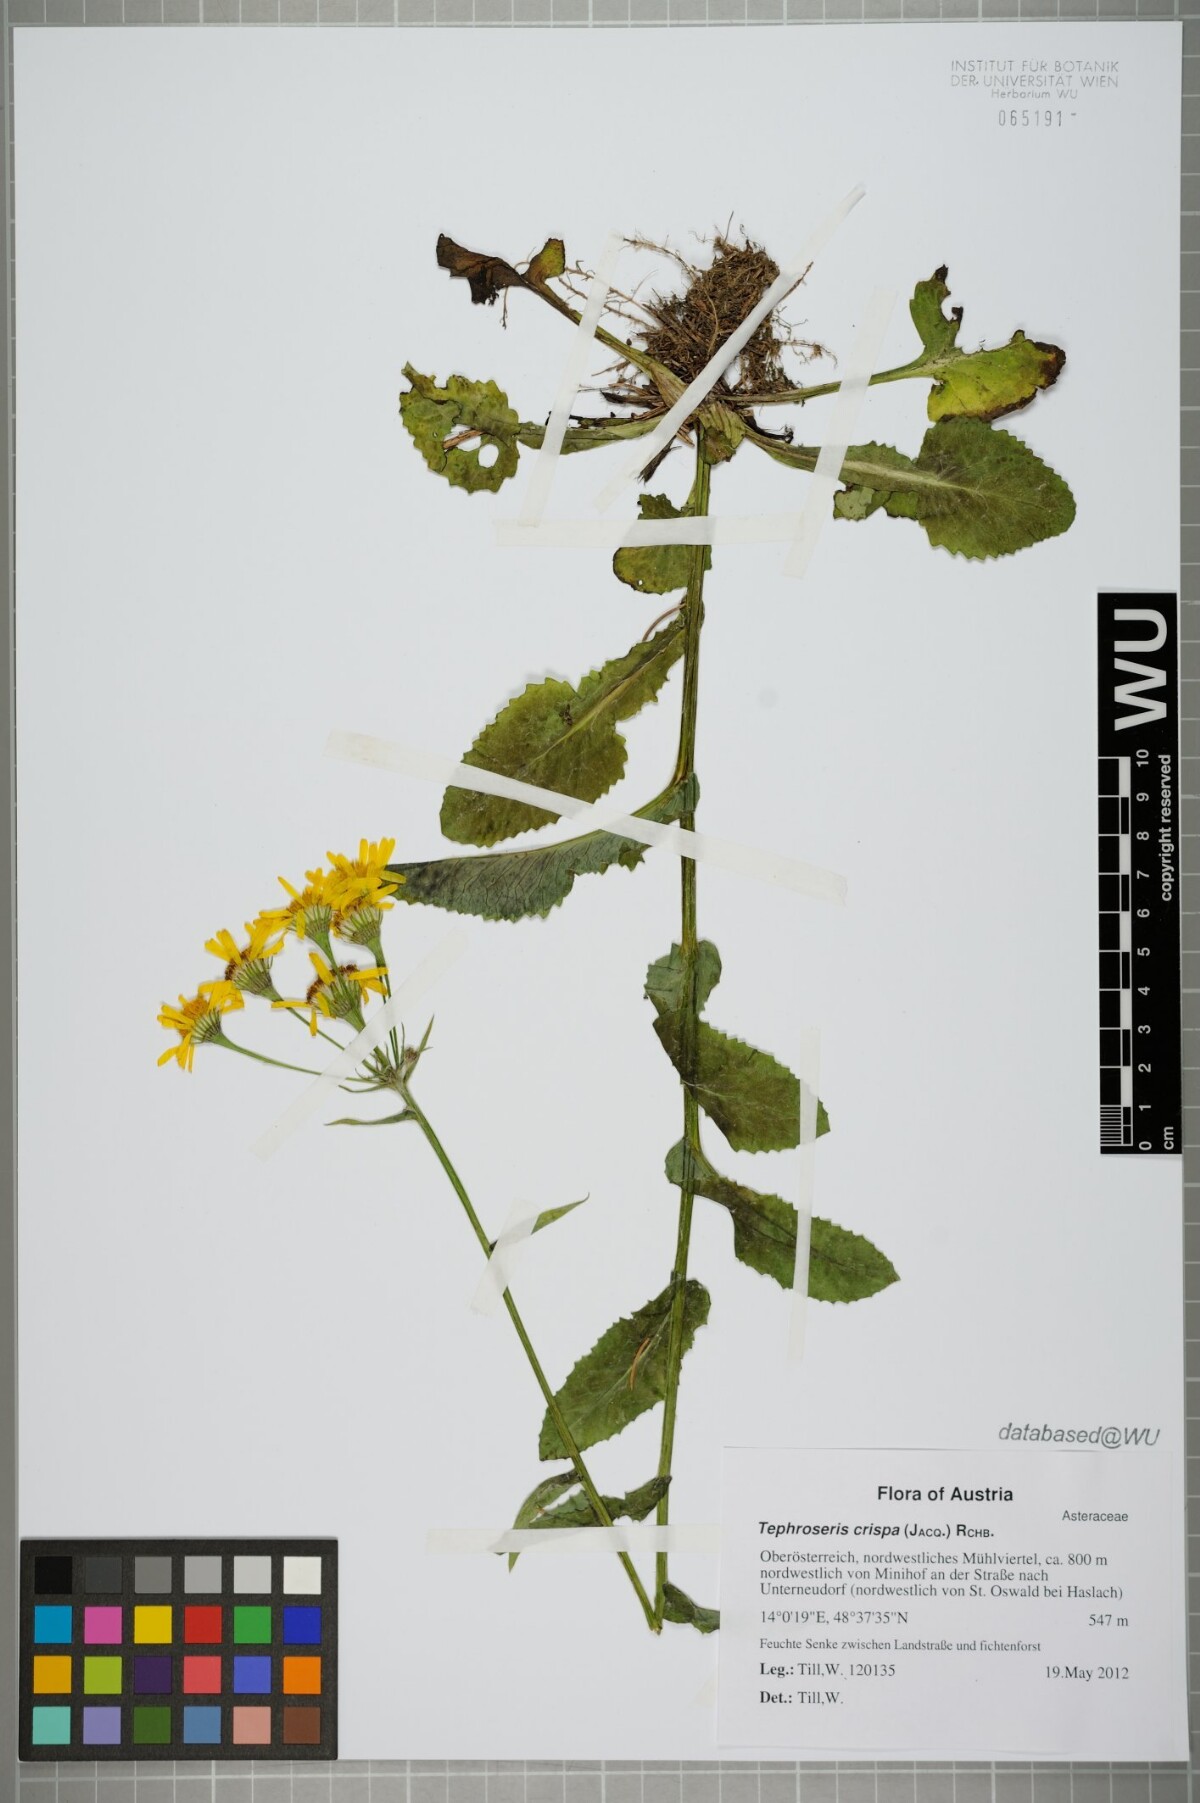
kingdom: Plantae
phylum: Tracheophyta
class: Magnoliopsida
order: Asterales
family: Asteraceae
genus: Tephroseris
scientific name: Tephroseris crispa
